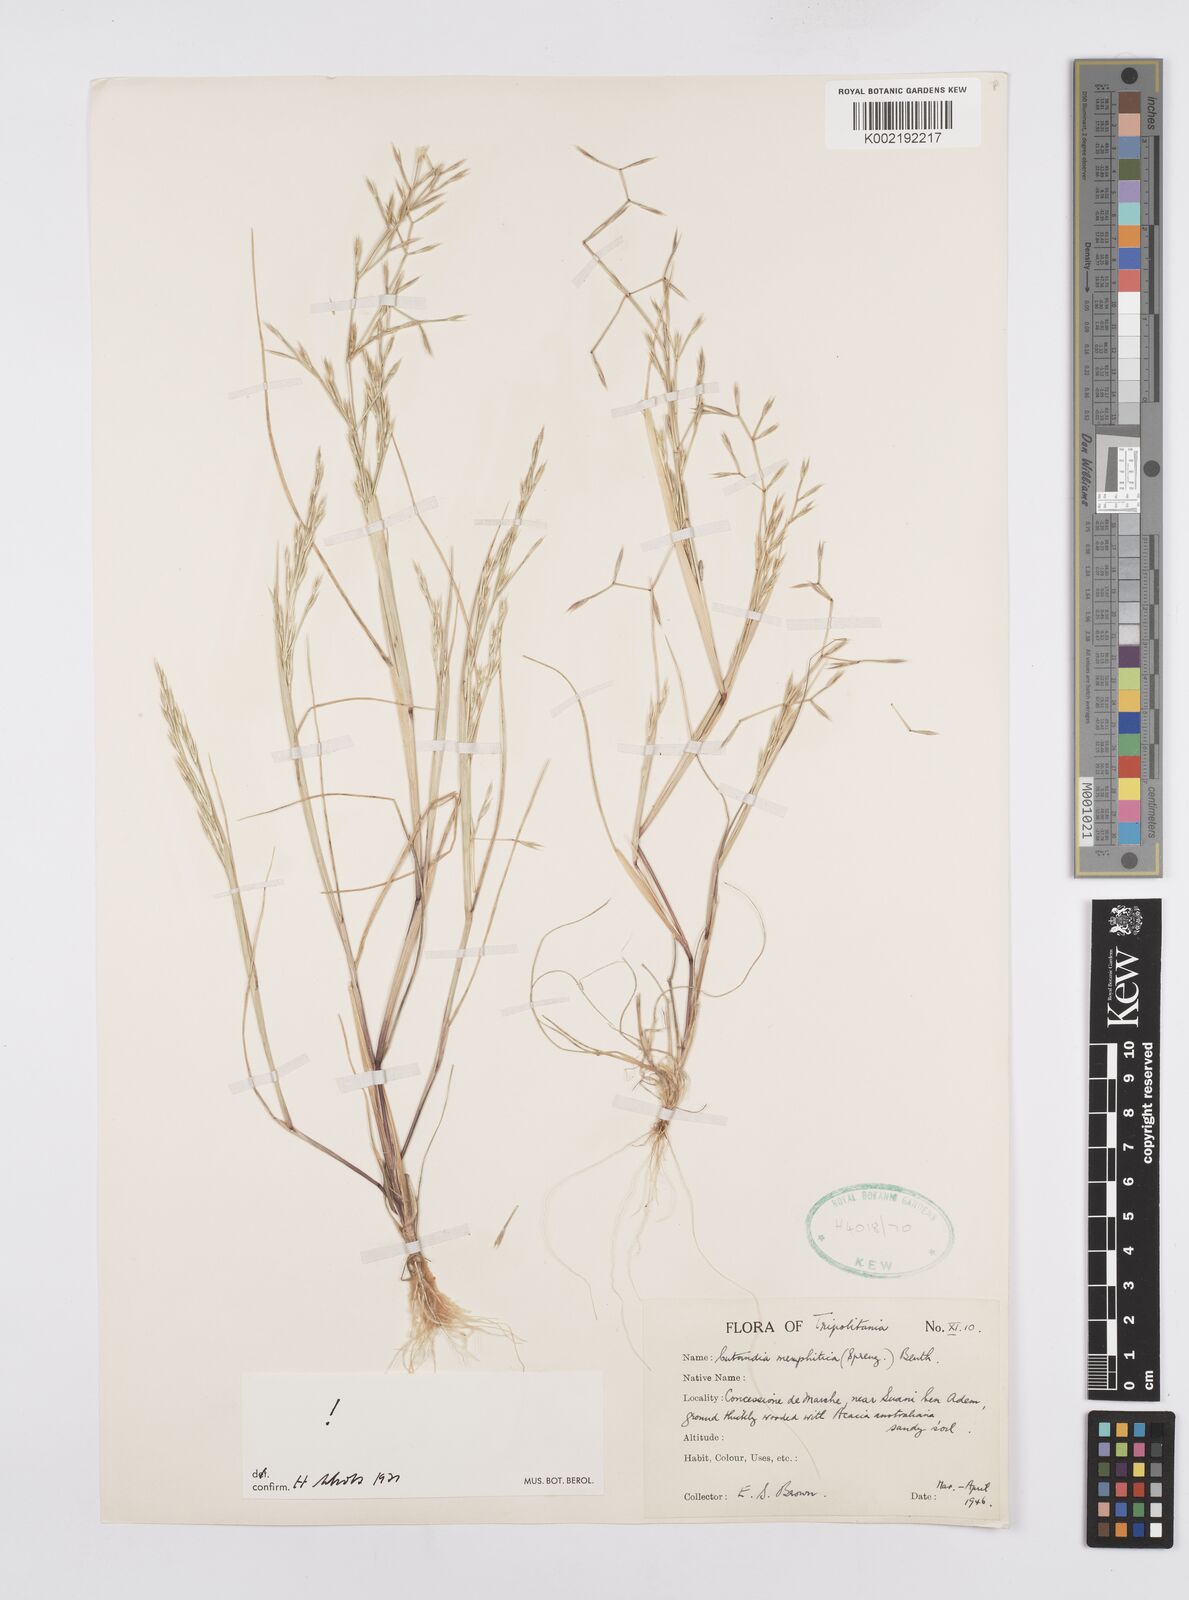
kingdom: Plantae
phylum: Tracheophyta
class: Liliopsida
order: Poales
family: Poaceae
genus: Cutandia
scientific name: Cutandia memphitica
